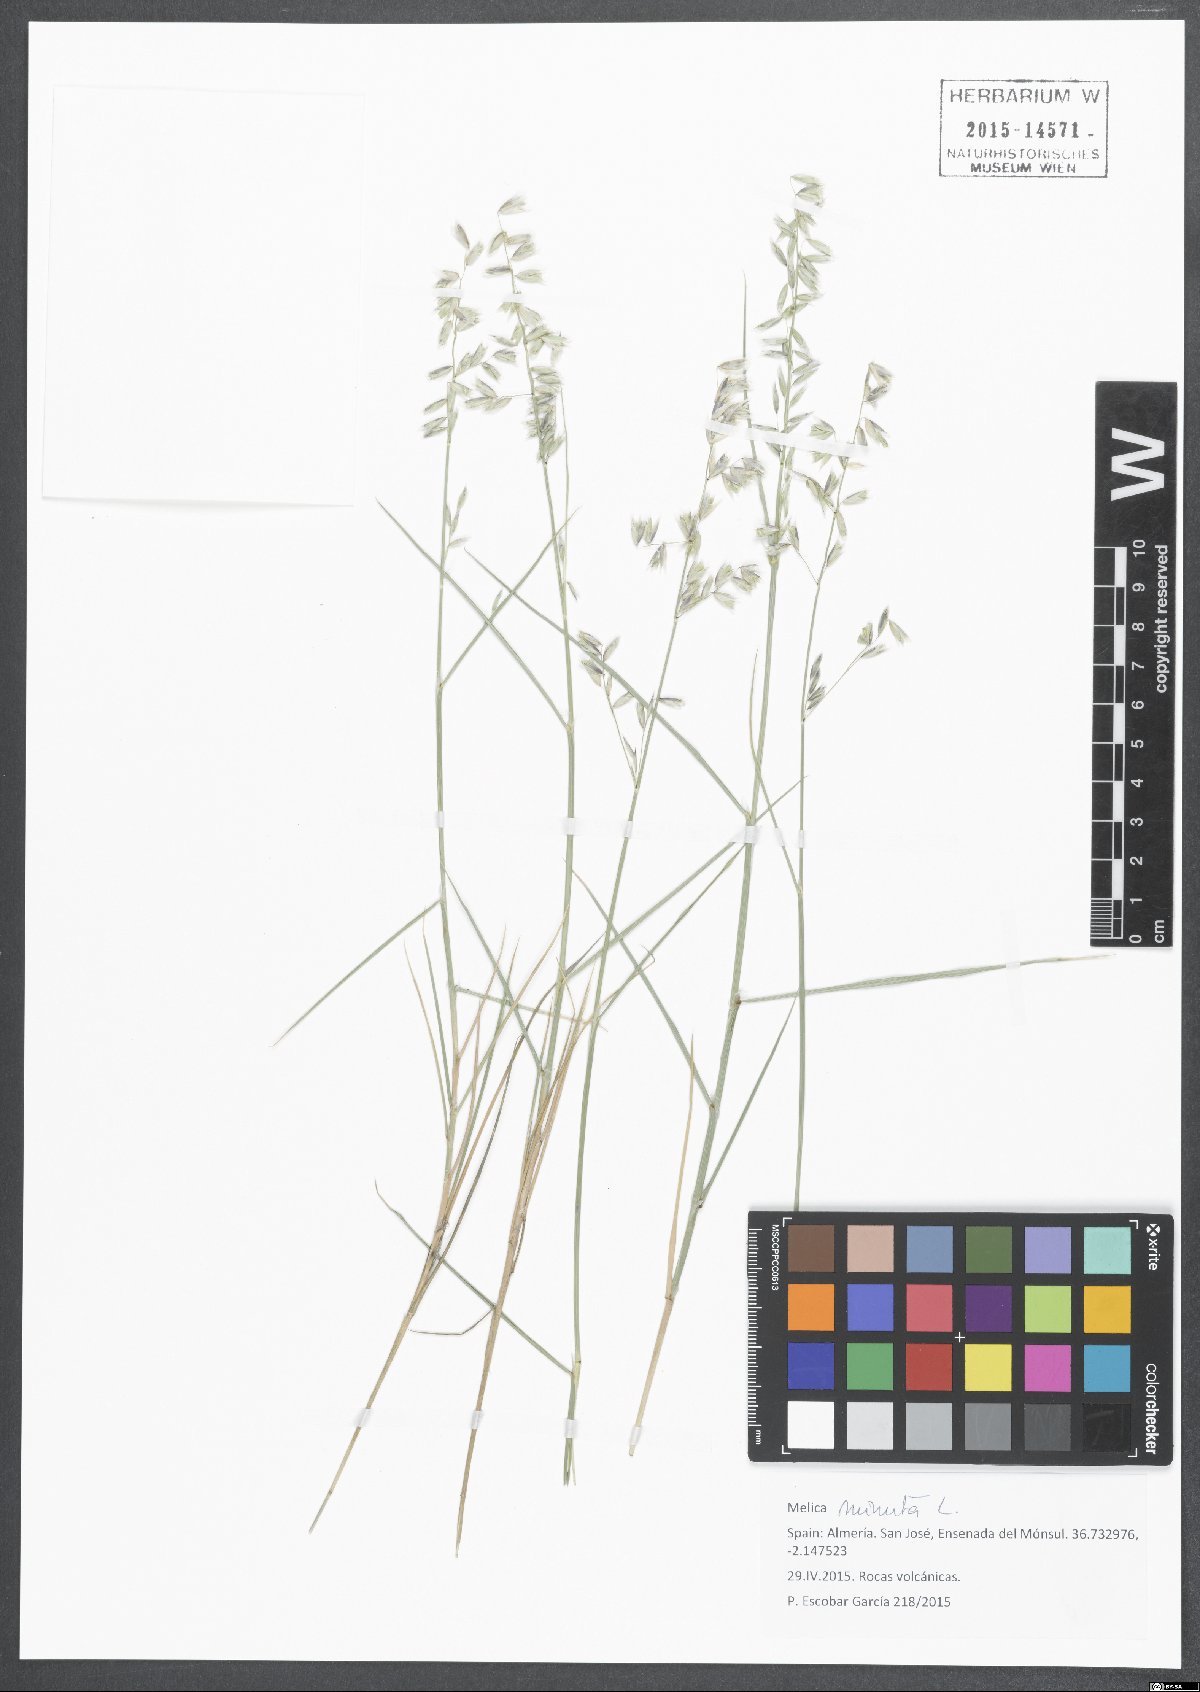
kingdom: Plantae
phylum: Tracheophyta
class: Liliopsida
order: Poales
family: Poaceae
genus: Melica
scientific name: Melica minuta
